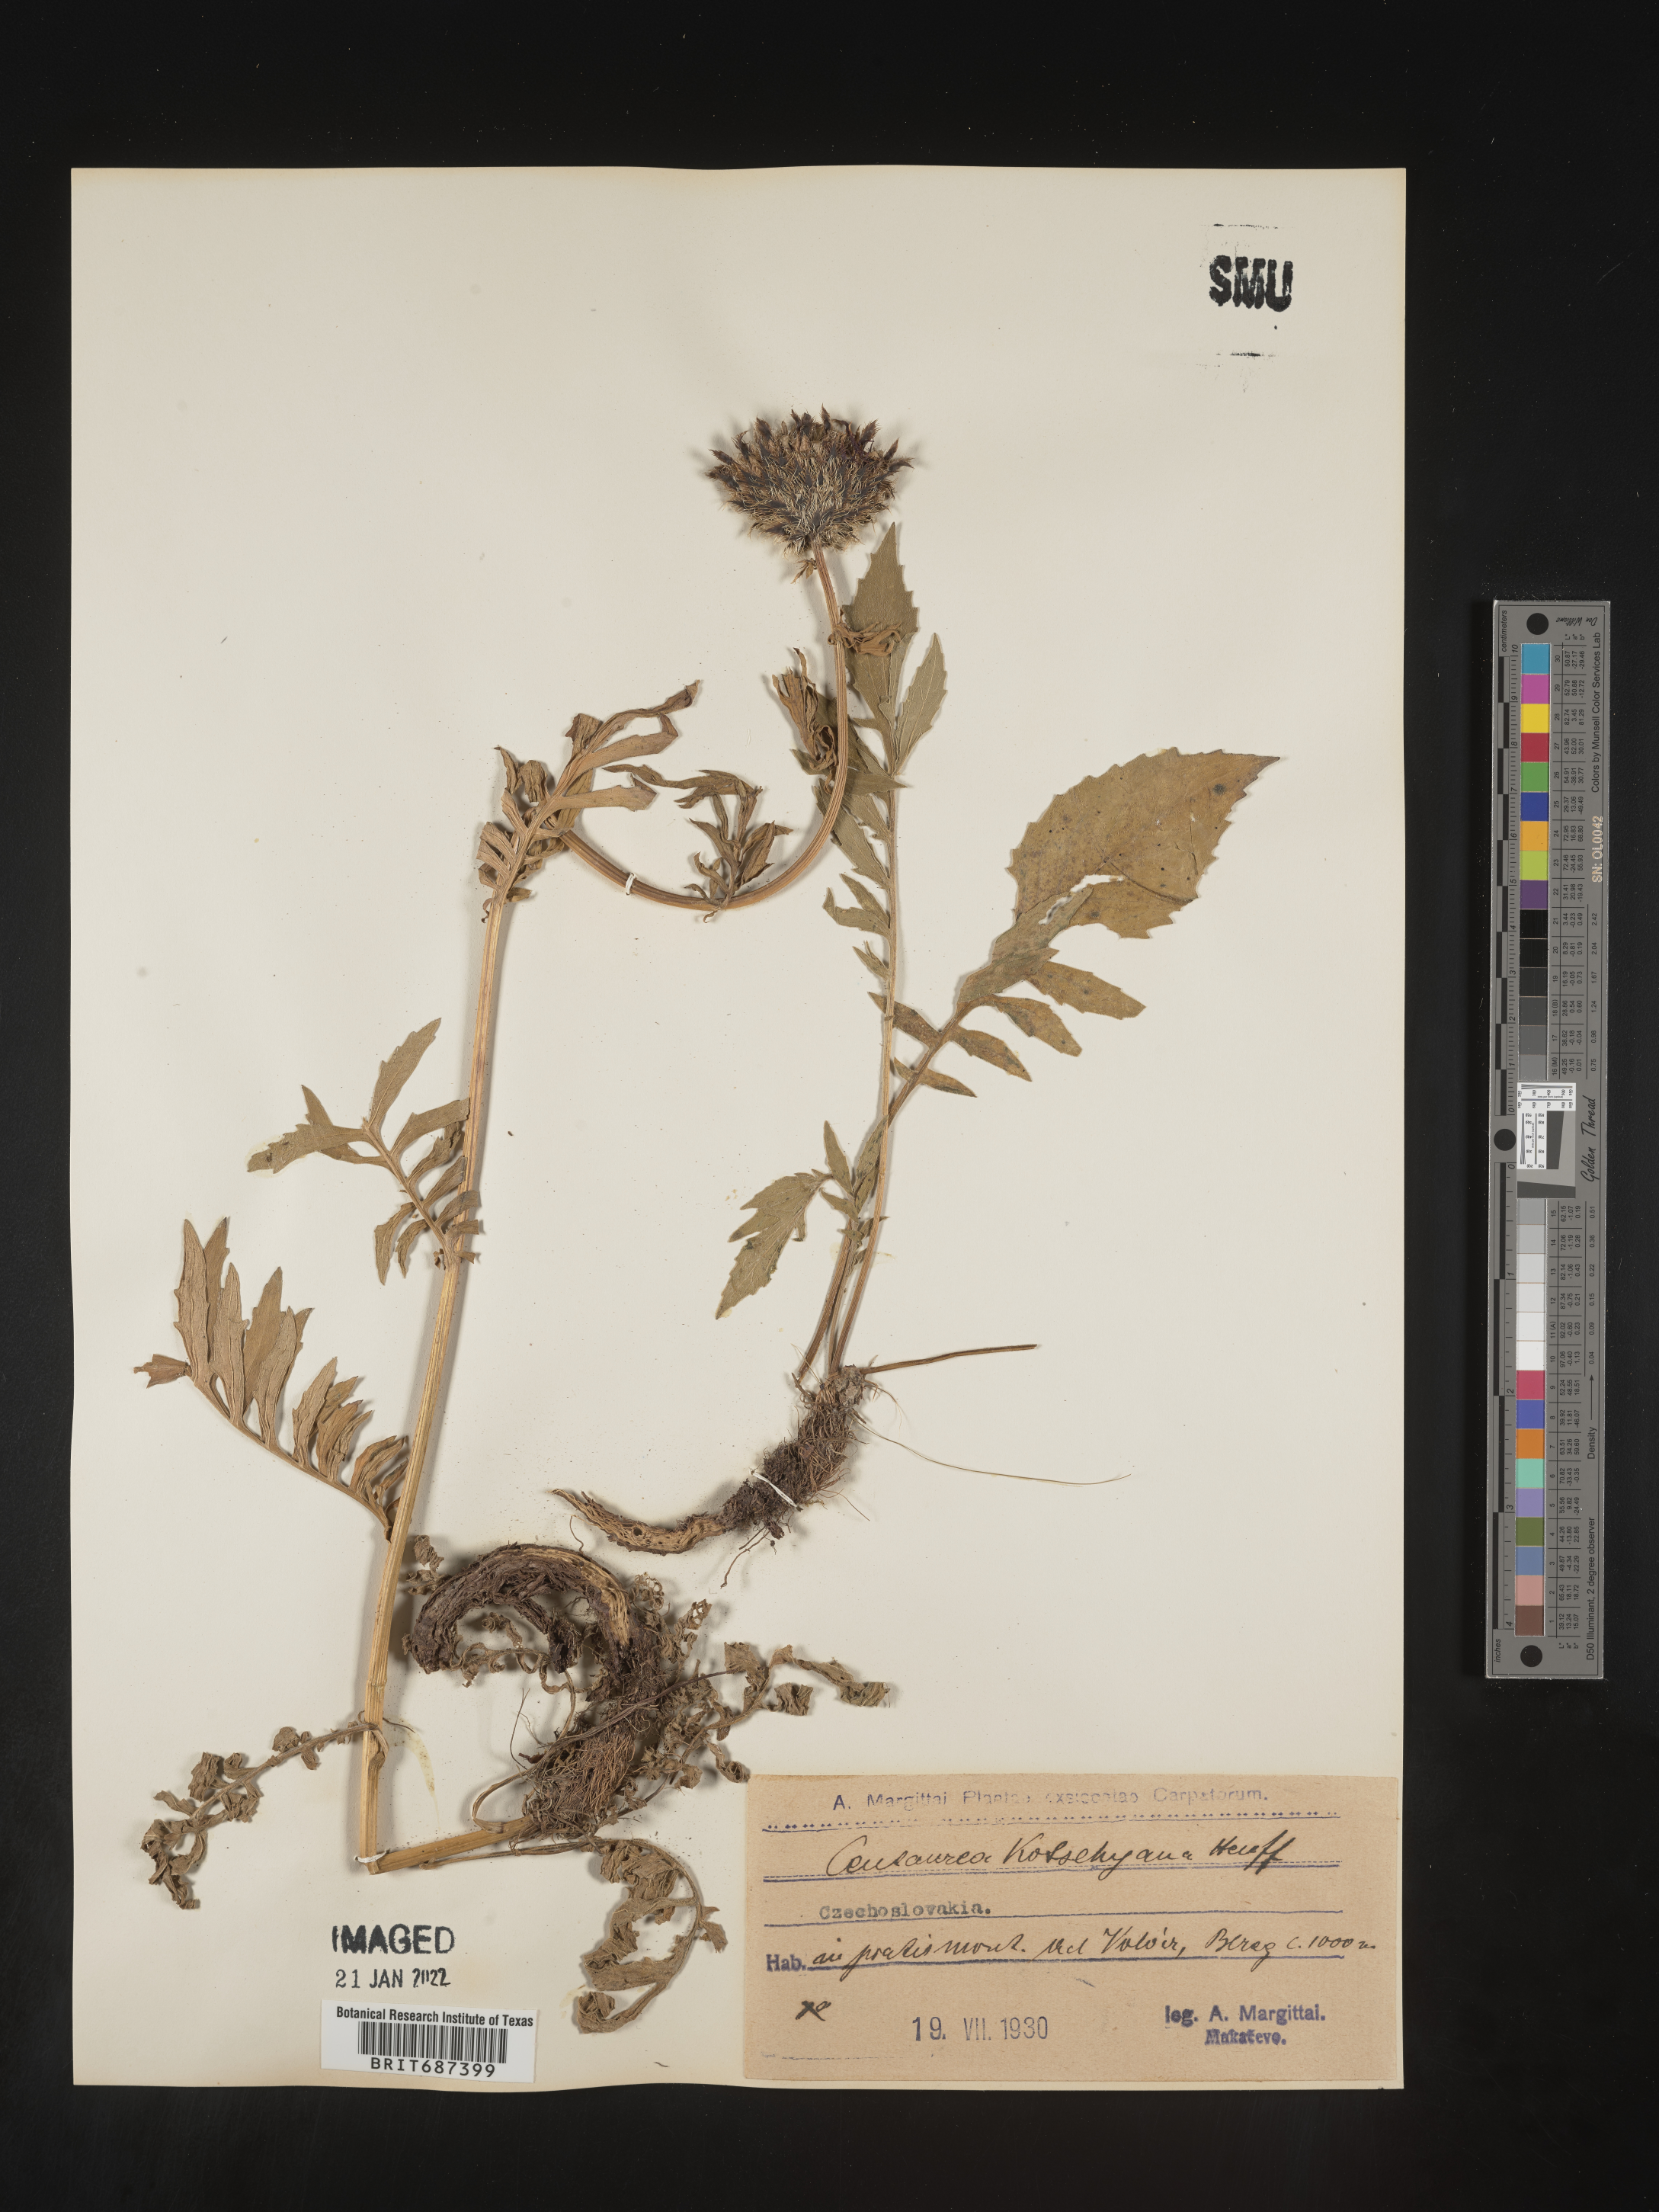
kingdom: Plantae
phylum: Tracheophyta
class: Magnoliopsida
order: Asterales
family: Asteraceae
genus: Centaurea
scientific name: Centaurea
